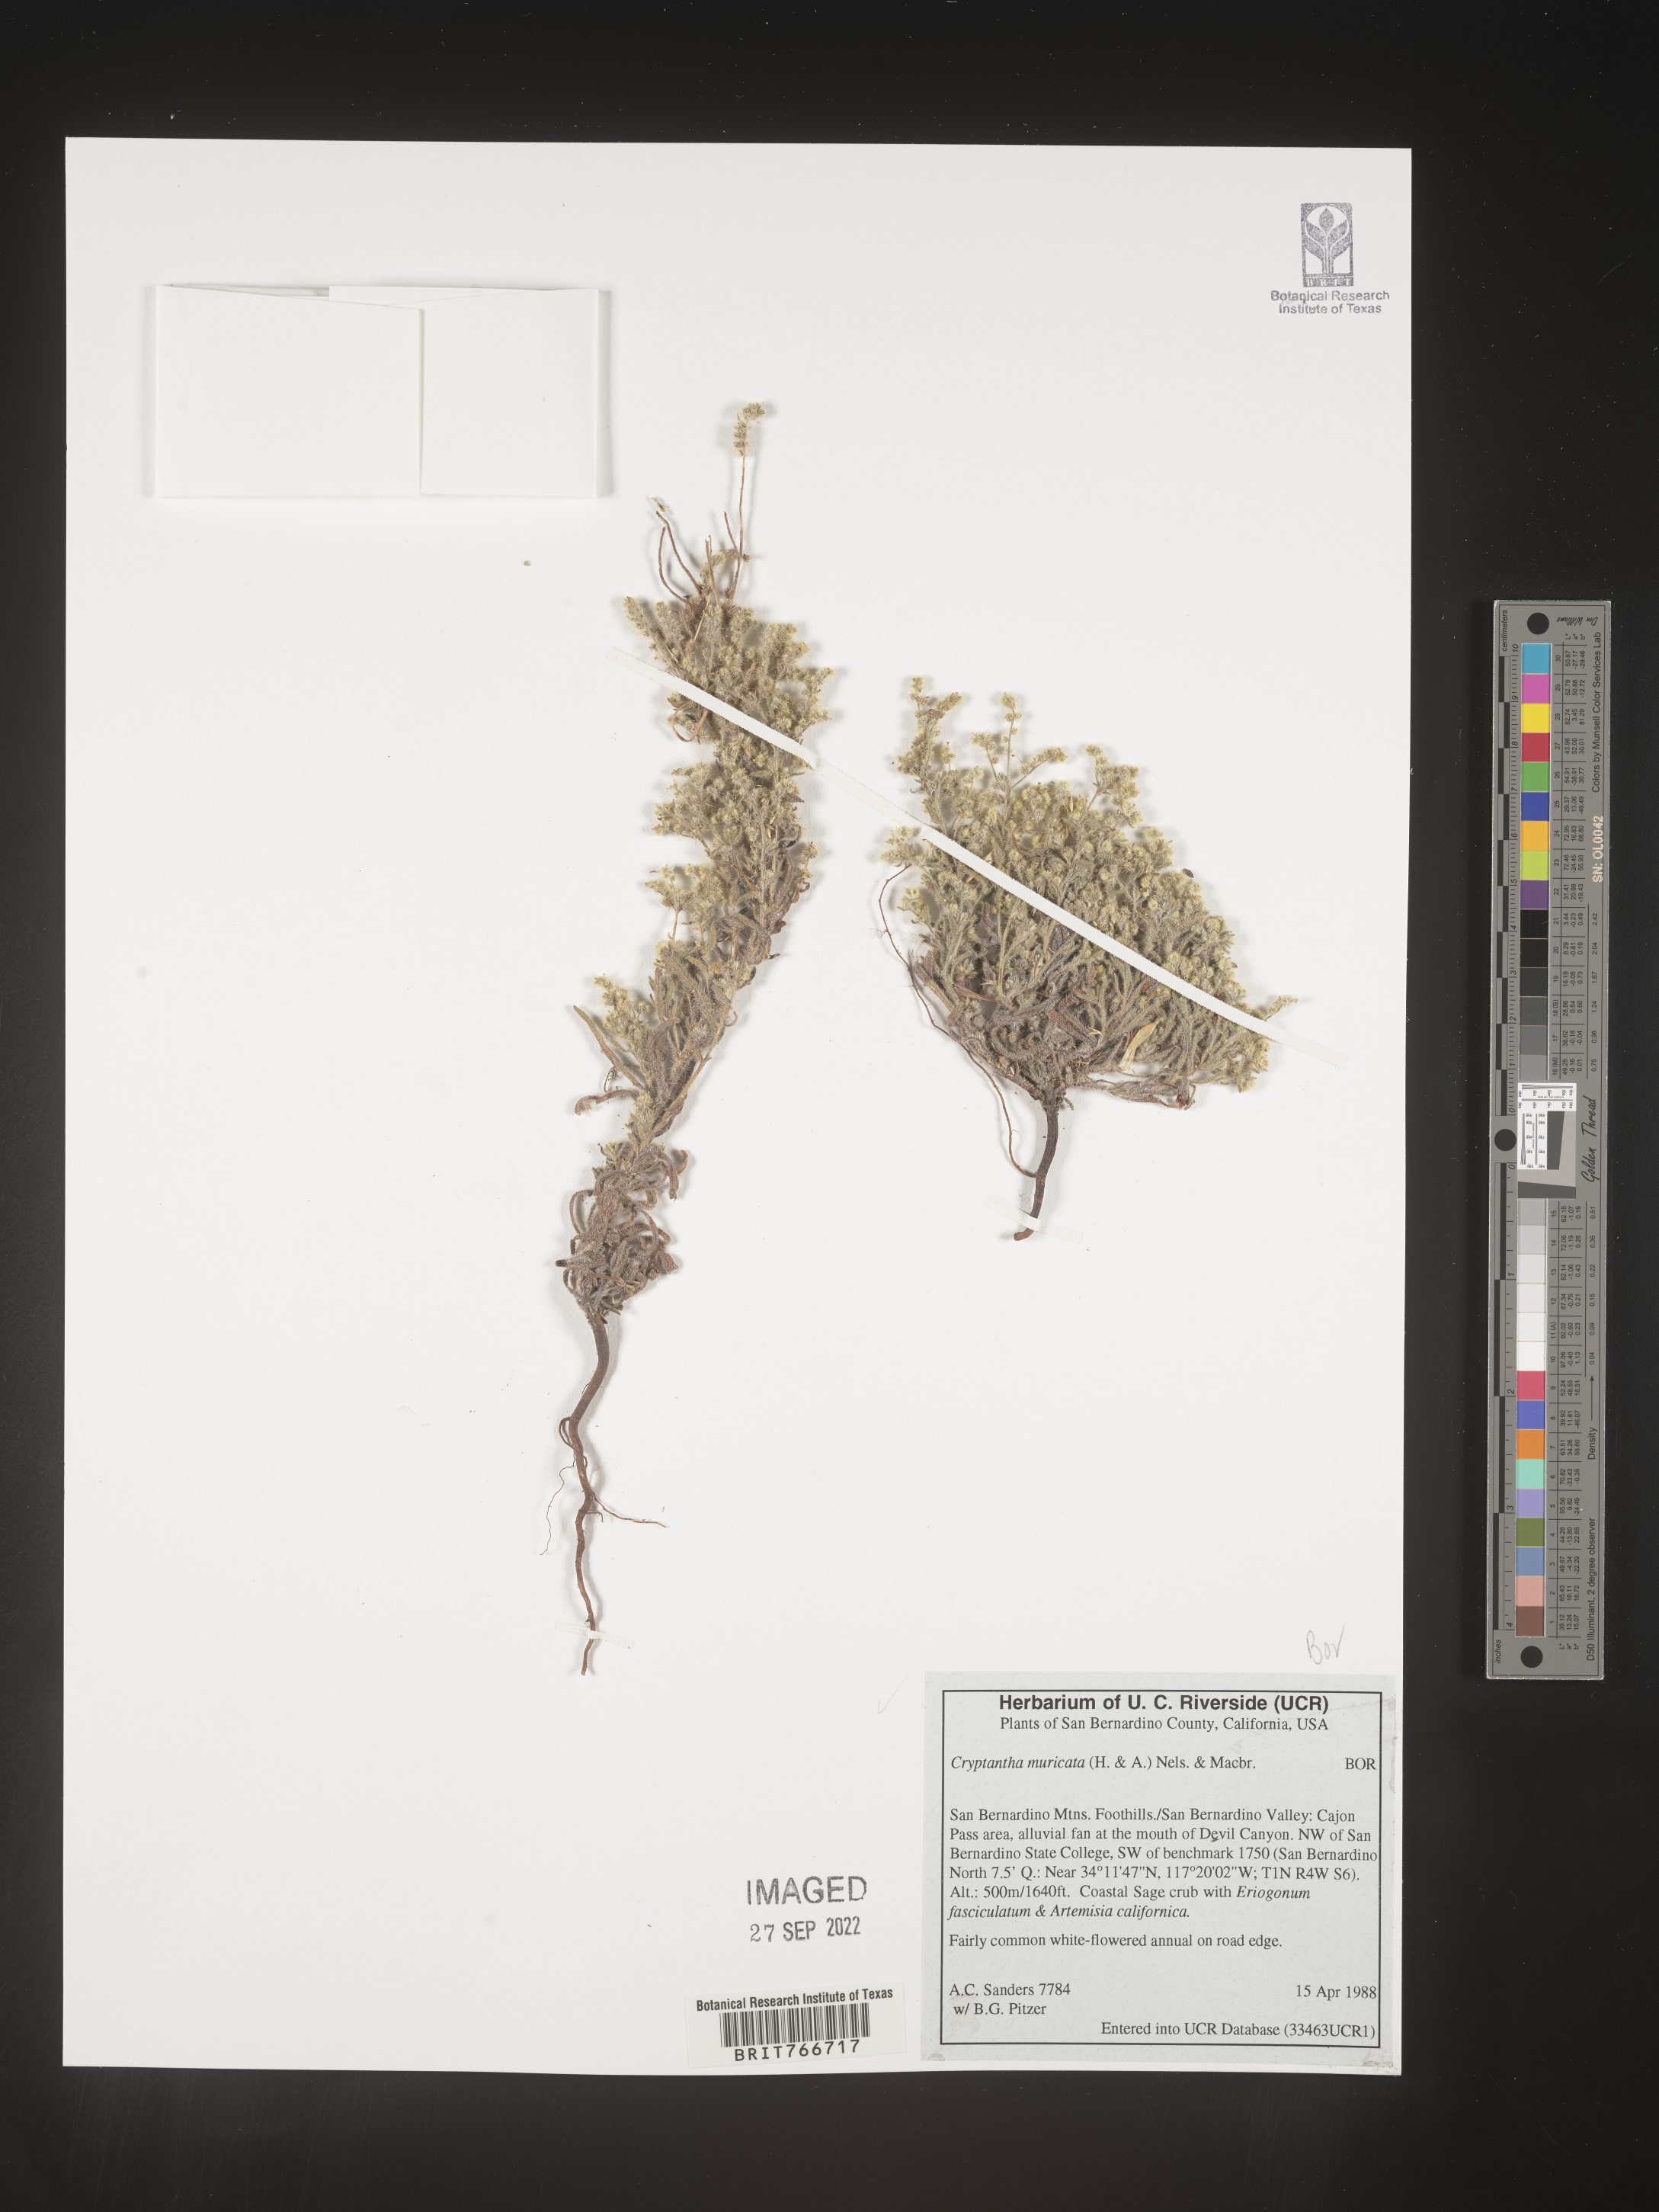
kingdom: Plantae
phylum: Tracheophyta
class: Magnoliopsida
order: Boraginales
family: Boraginaceae
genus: Cryptantha
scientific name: Cryptantha muricata
